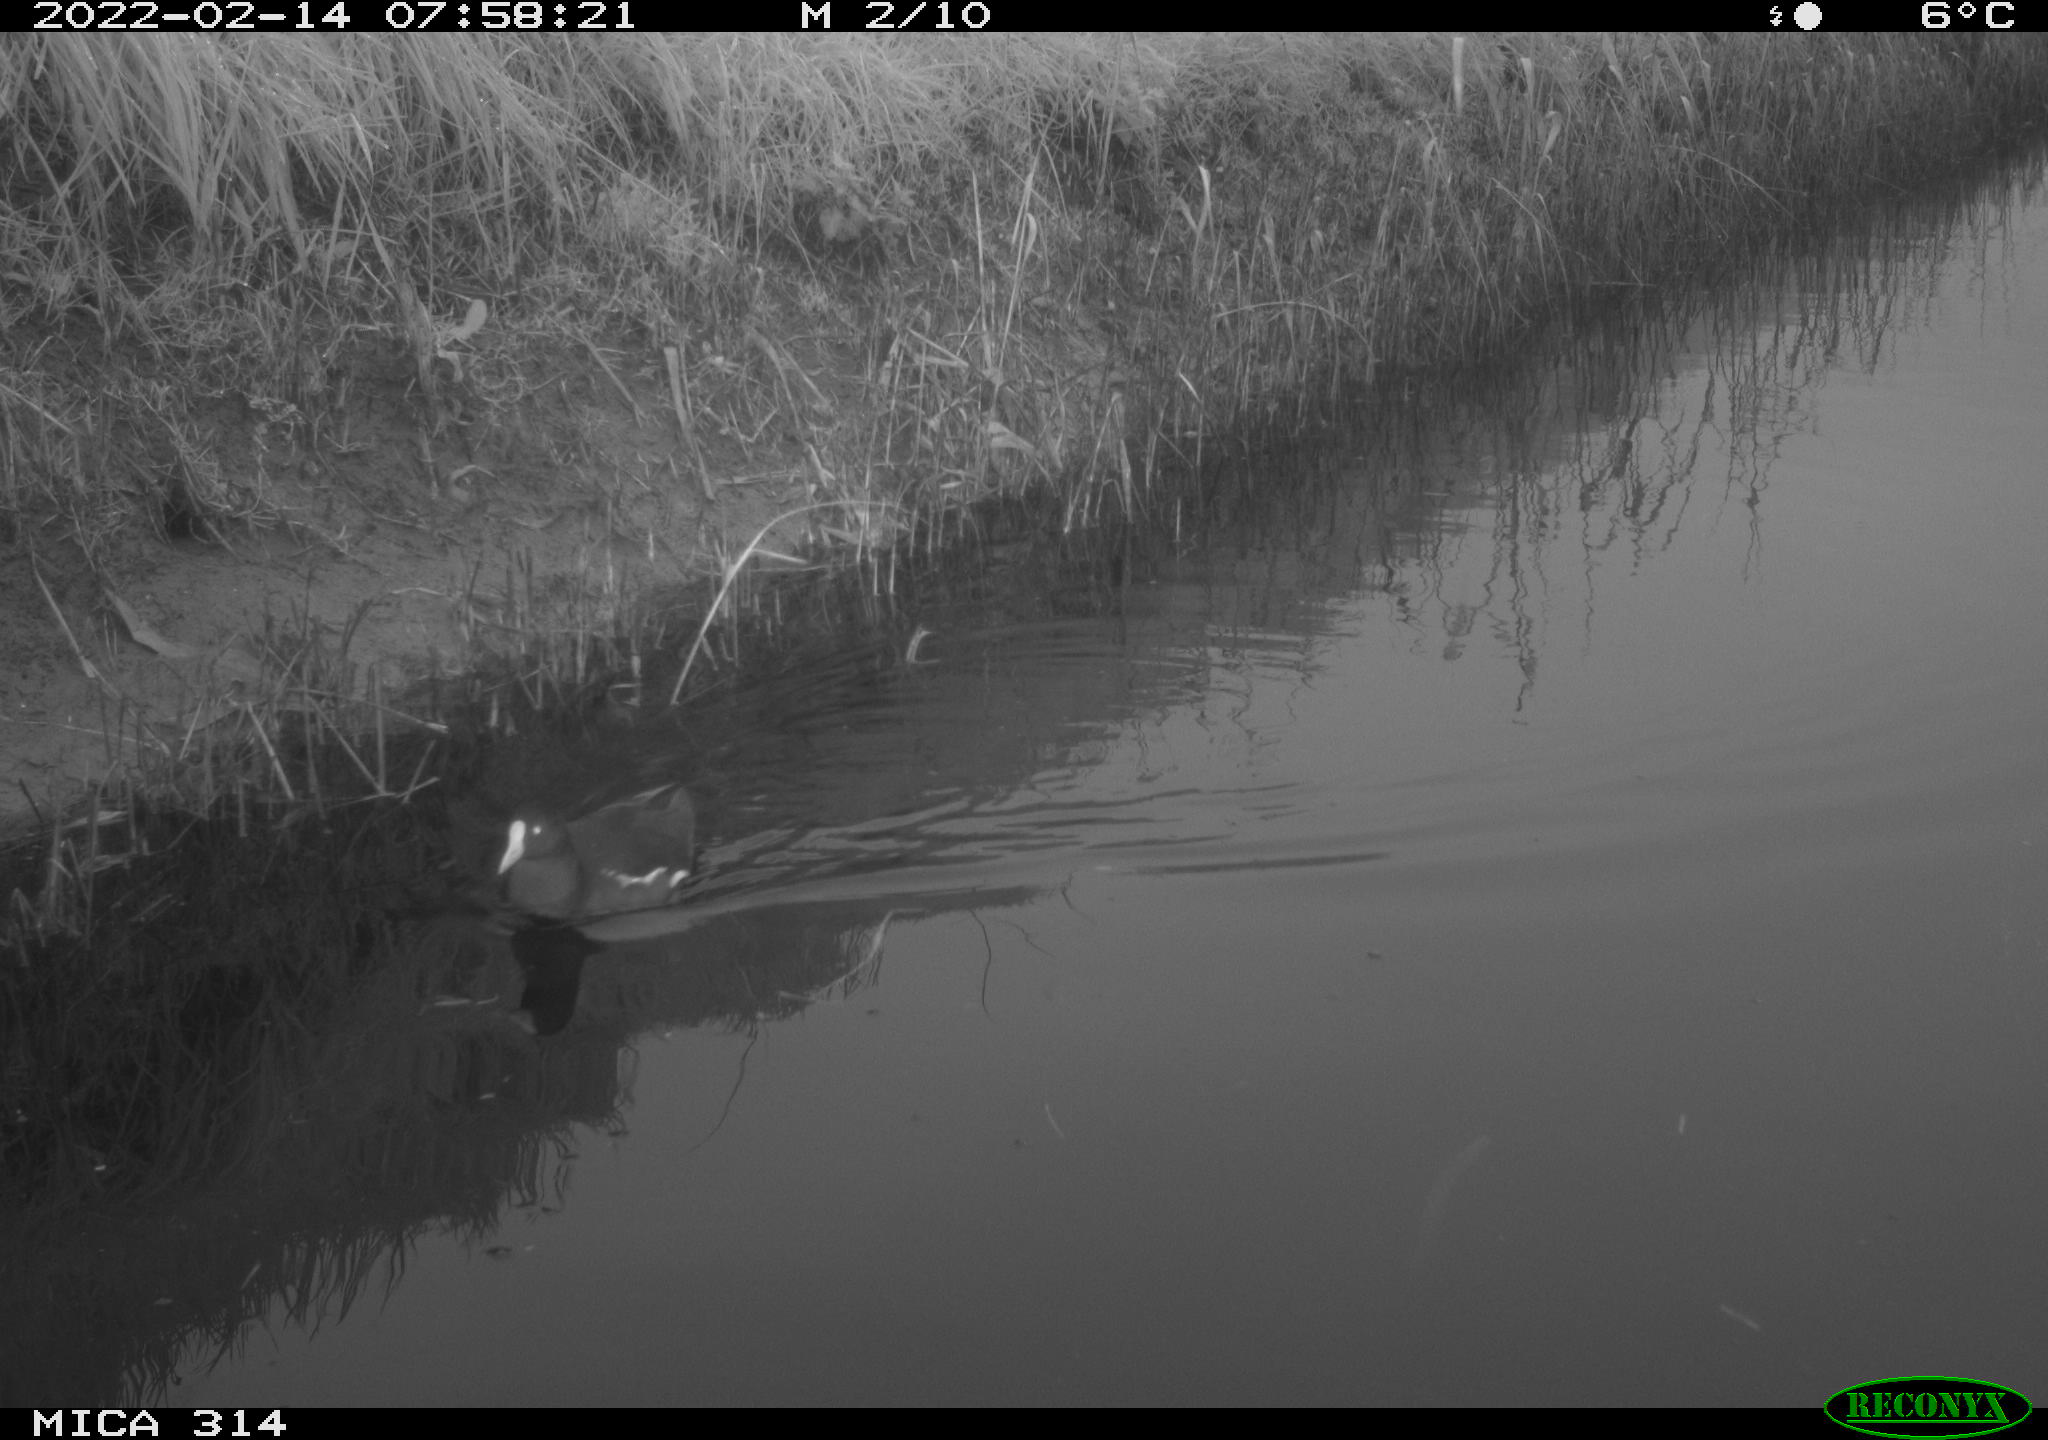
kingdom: Animalia
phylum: Chordata
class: Aves
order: Gruiformes
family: Rallidae
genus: Gallinula
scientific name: Gallinula chloropus
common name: Common moorhen
